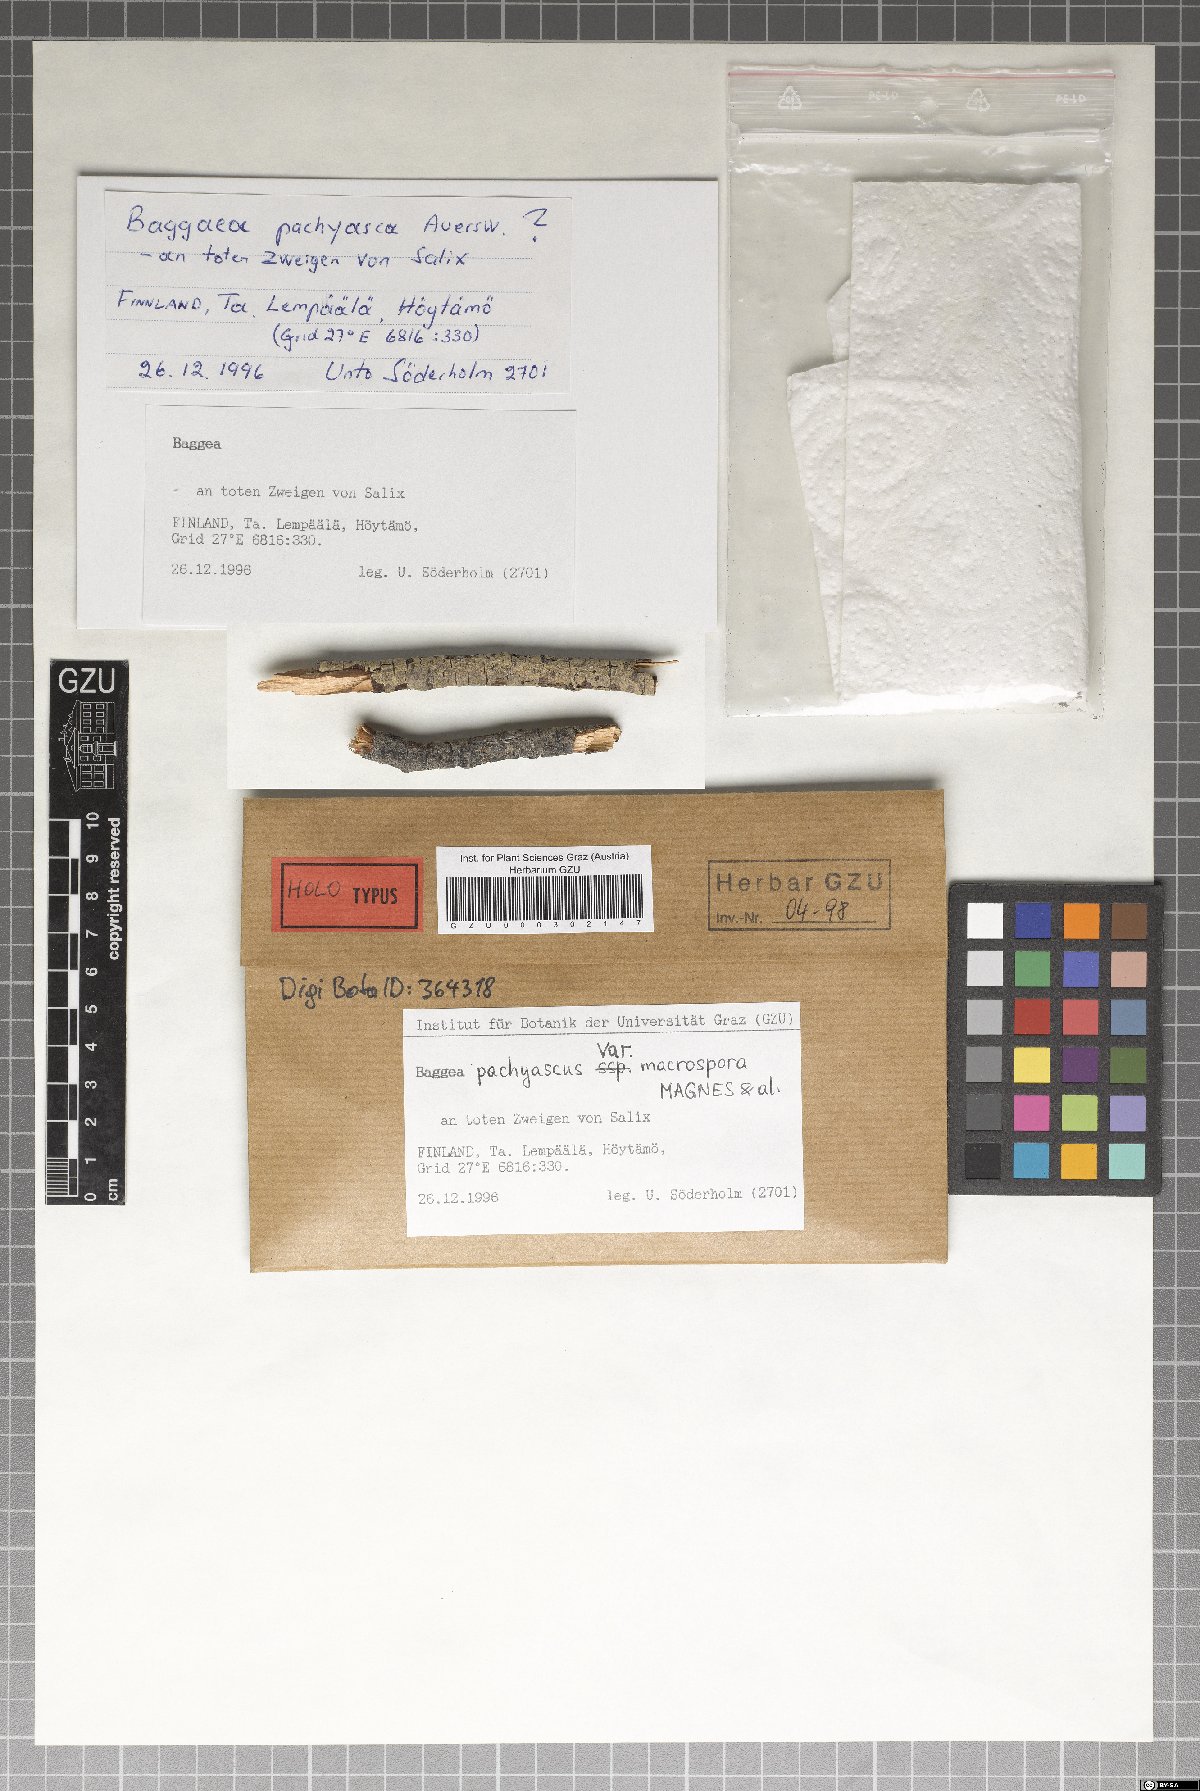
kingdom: Fungi
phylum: Ascomycota
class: Dothideomycetes
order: Patellariales
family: Patellariaceae
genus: Baggea
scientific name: Baggea pachyascus
